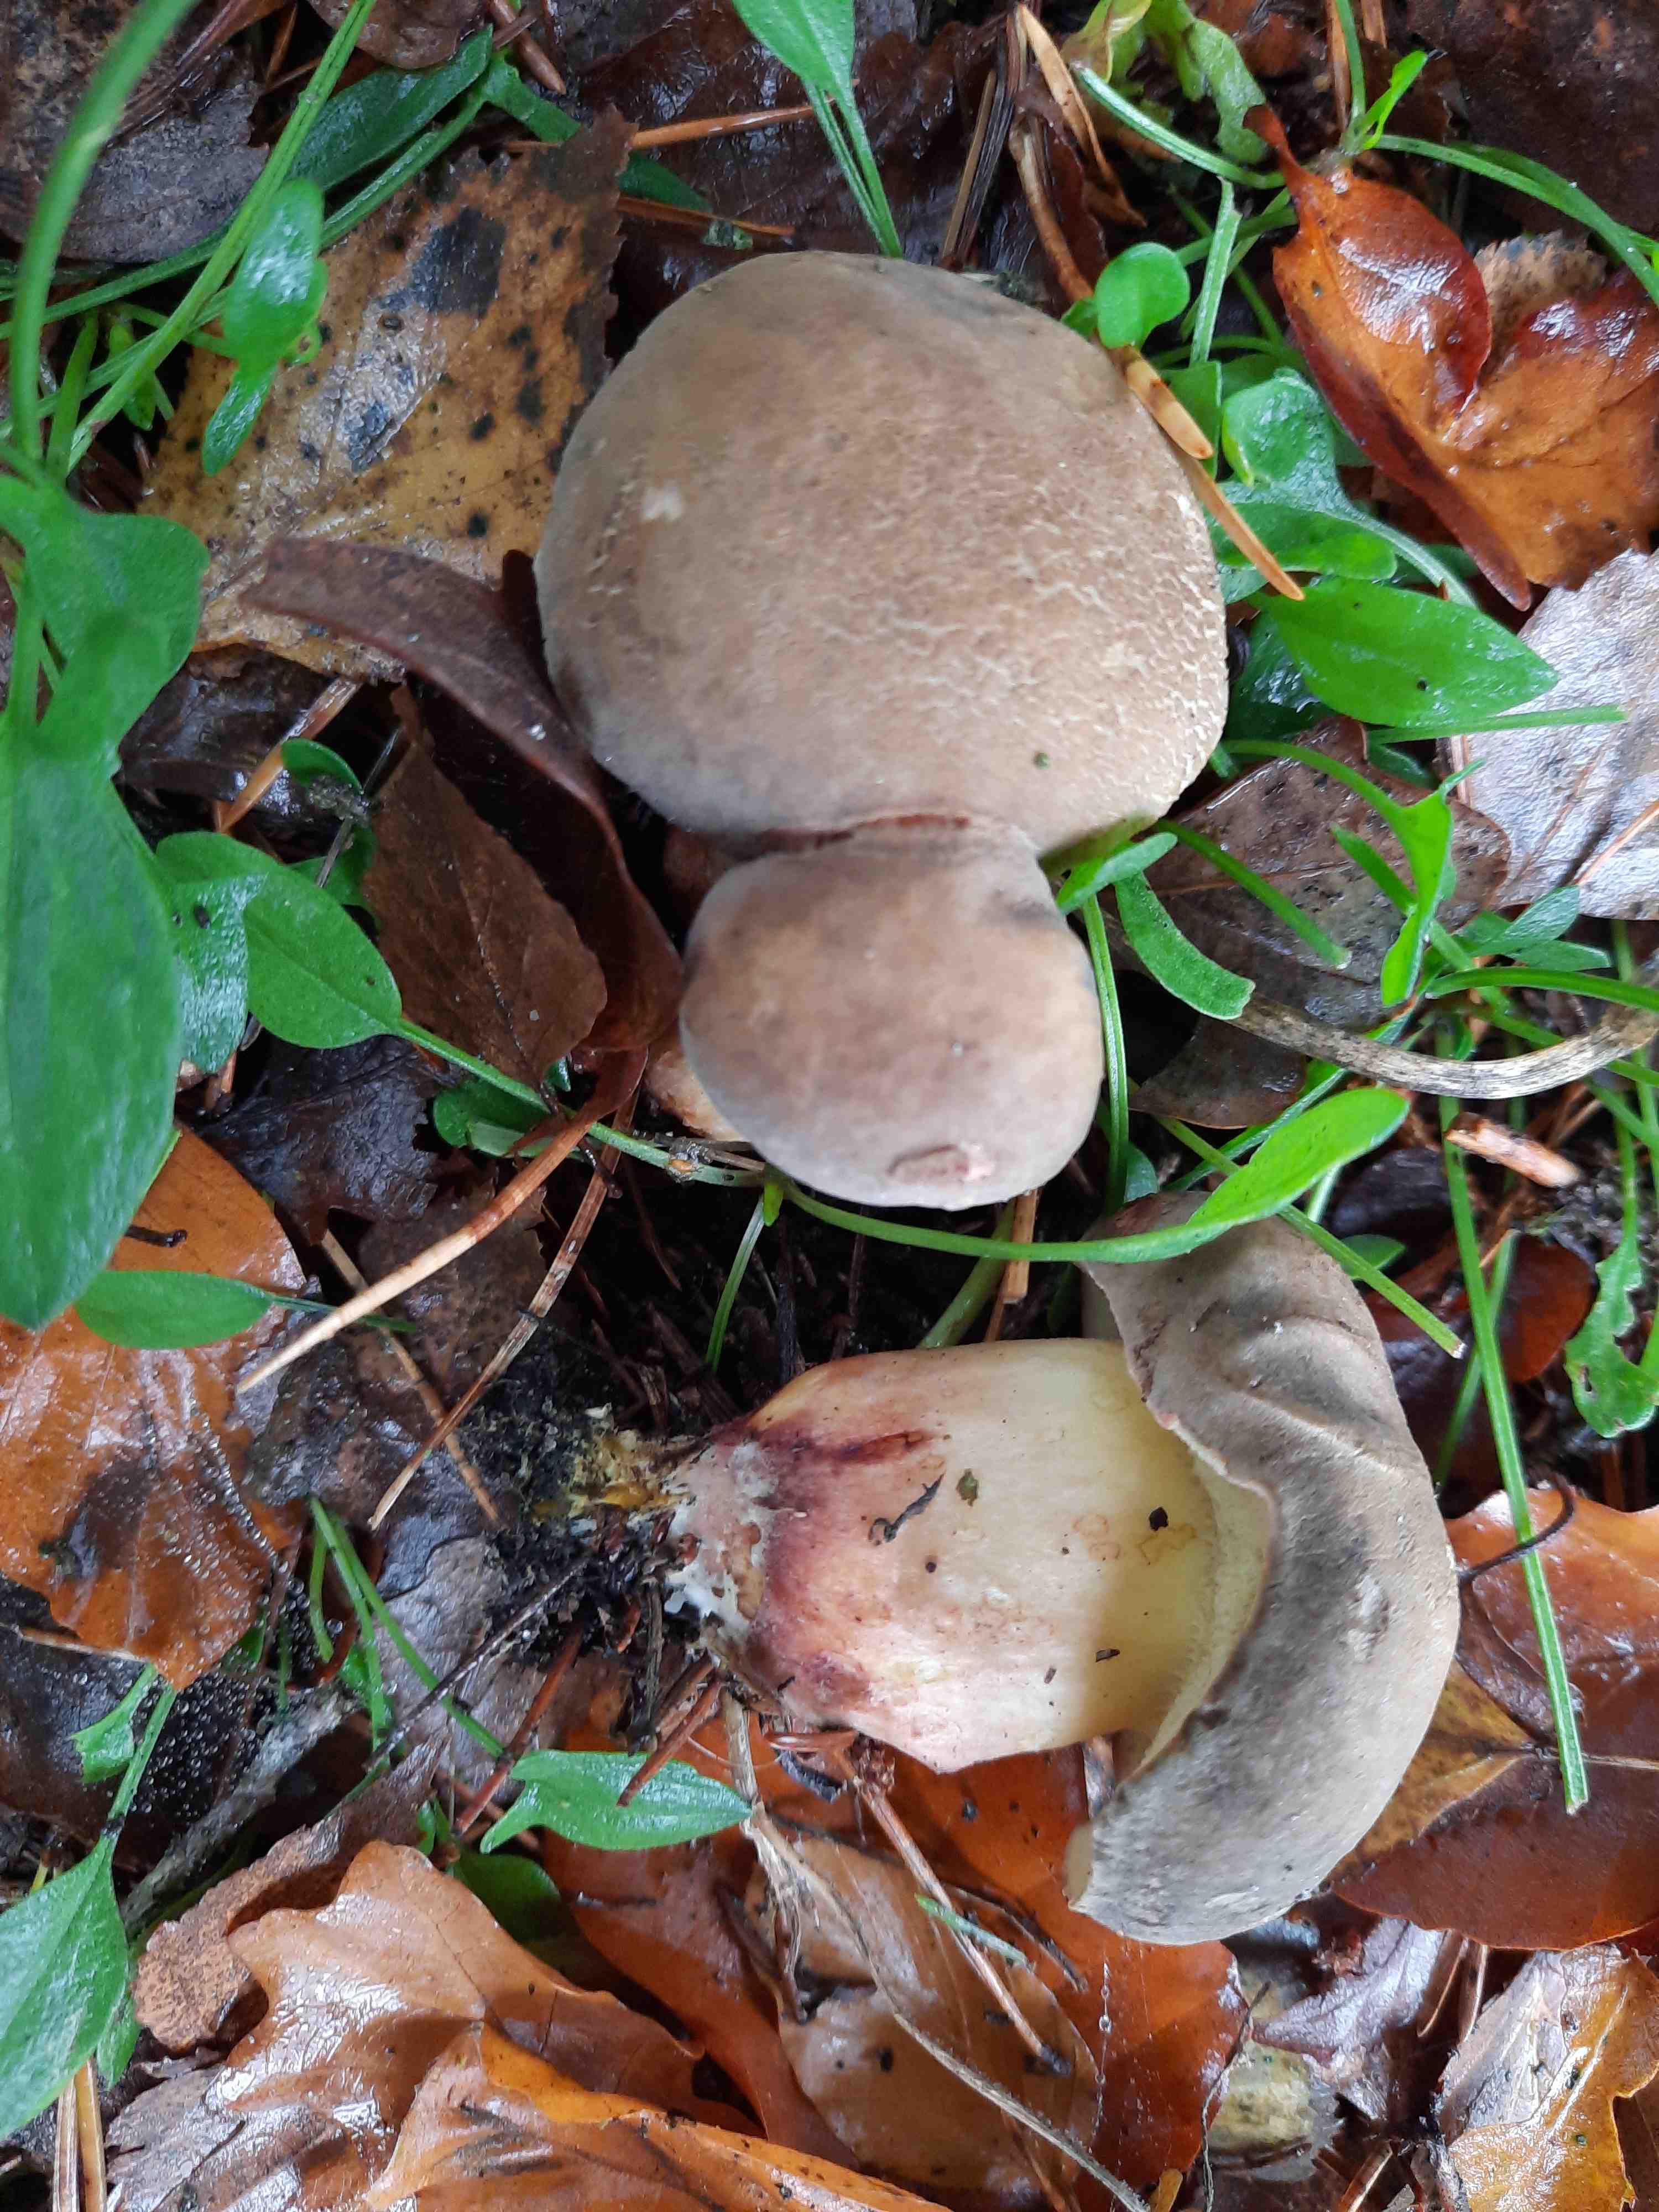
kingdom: Fungi
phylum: Basidiomycota
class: Agaricomycetes
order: Boletales
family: Boletaceae
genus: Xerocomellus
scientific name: Xerocomellus pruinatus
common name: dugget rørhat
